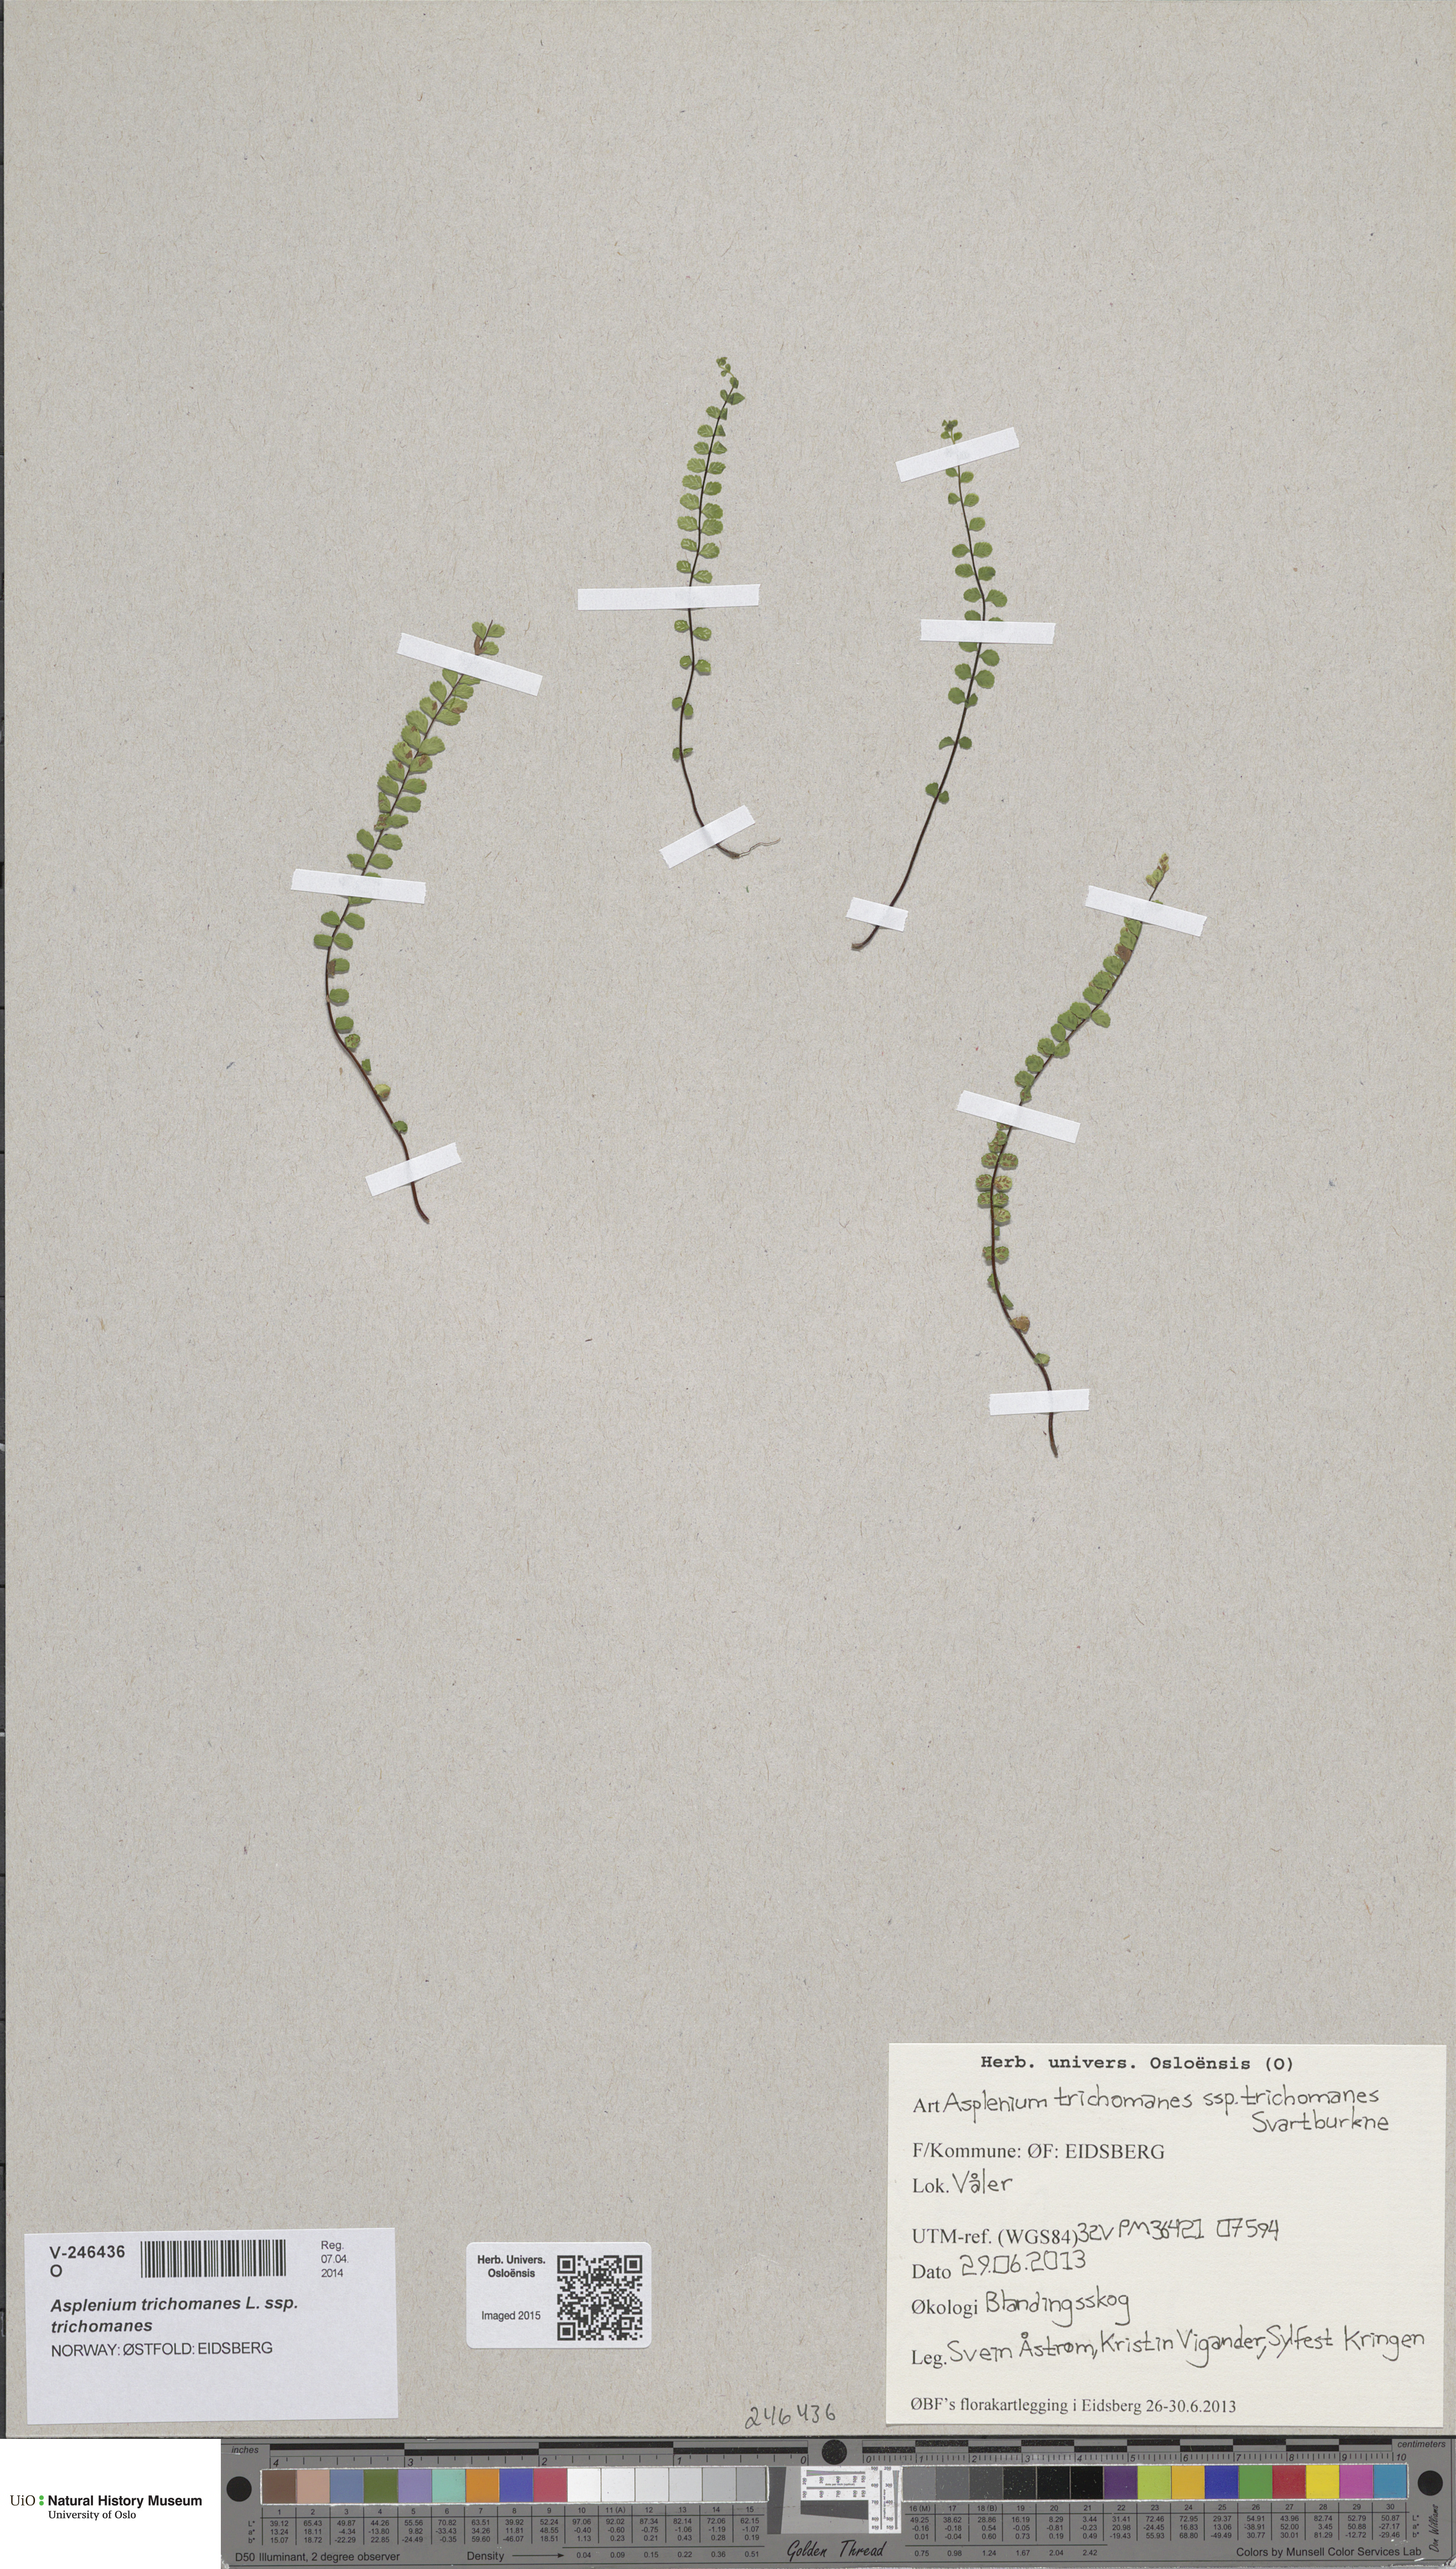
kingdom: Plantae
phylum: Tracheophyta
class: Polypodiopsida
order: Polypodiales
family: Aspleniaceae
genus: Asplenium
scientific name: Asplenium trichomanes
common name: Maidenhair spleenwort
